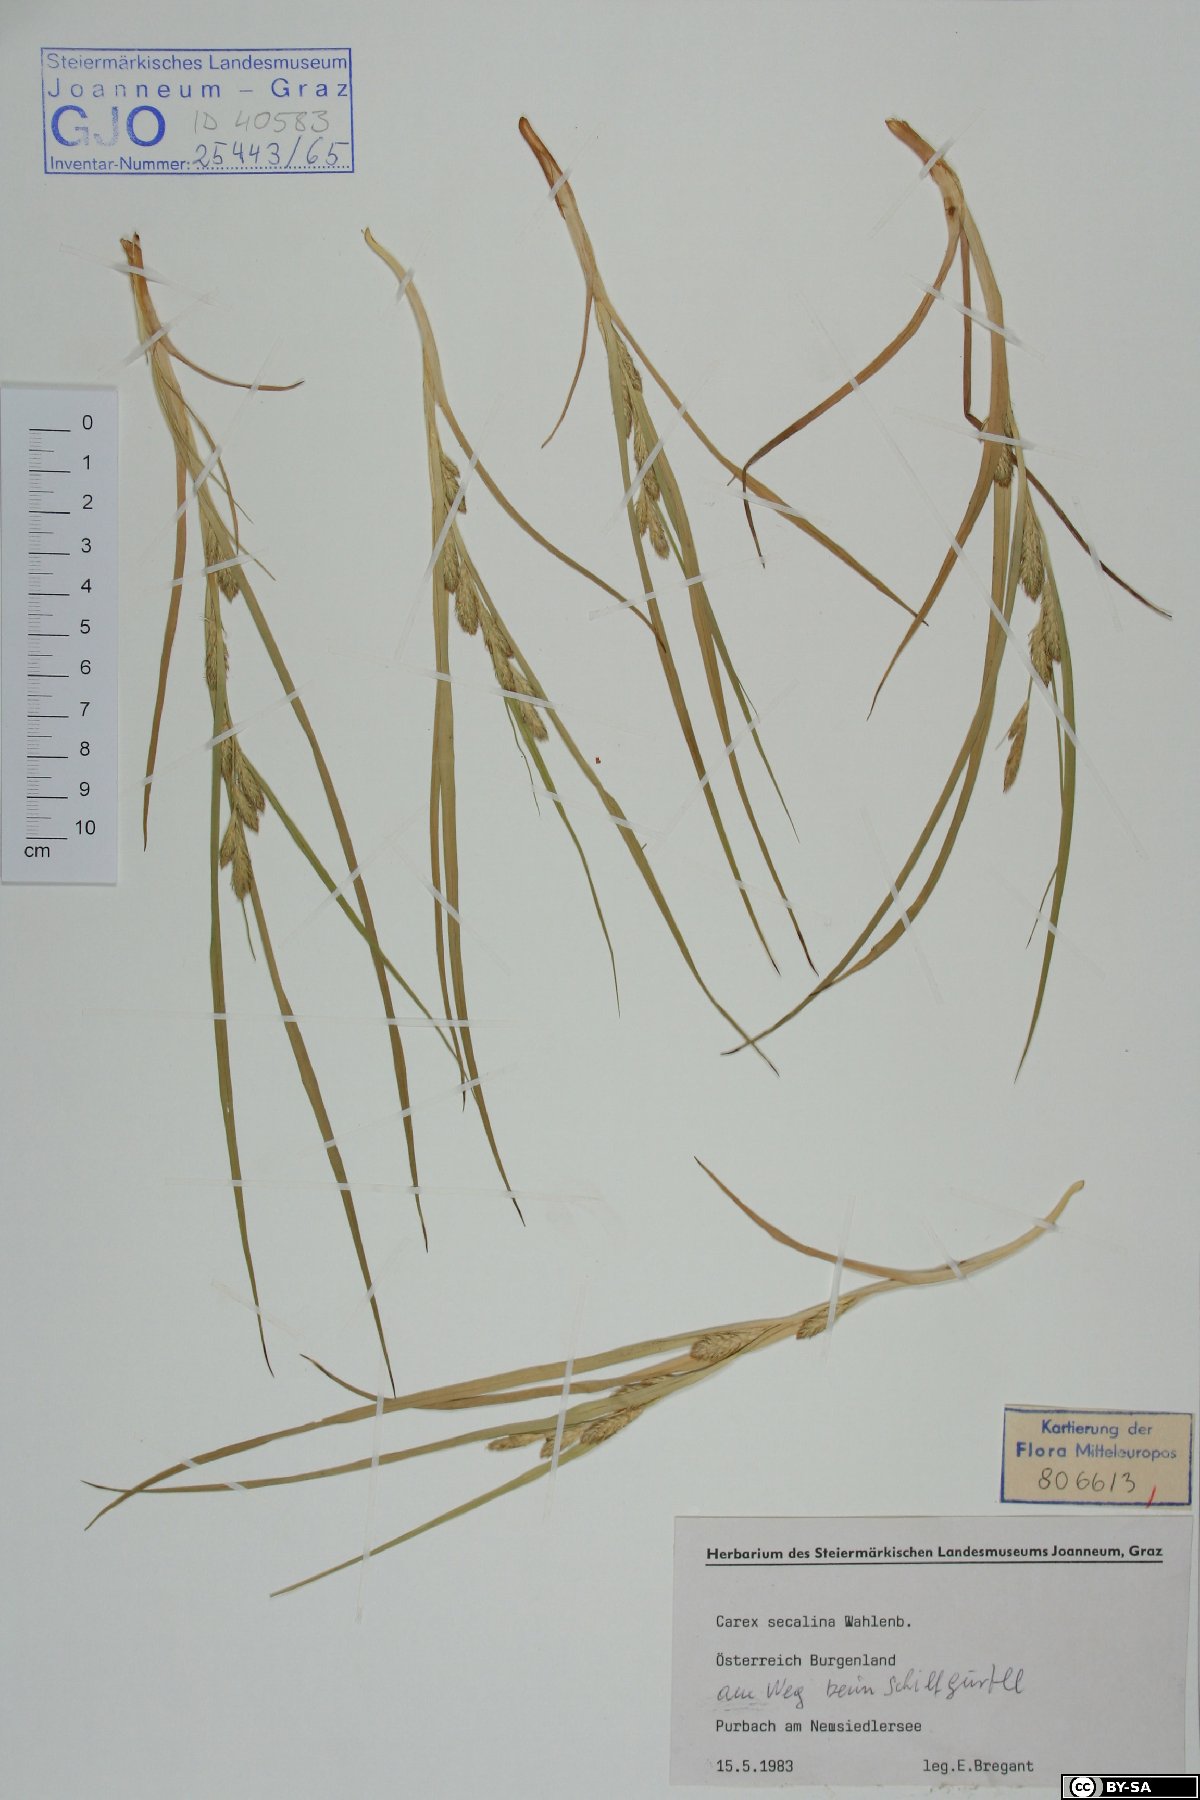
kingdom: Plantae
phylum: Tracheophyta
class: Liliopsida
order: Poales
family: Cyperaceae
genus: Carex
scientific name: Carex secalina
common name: Rye sedge
